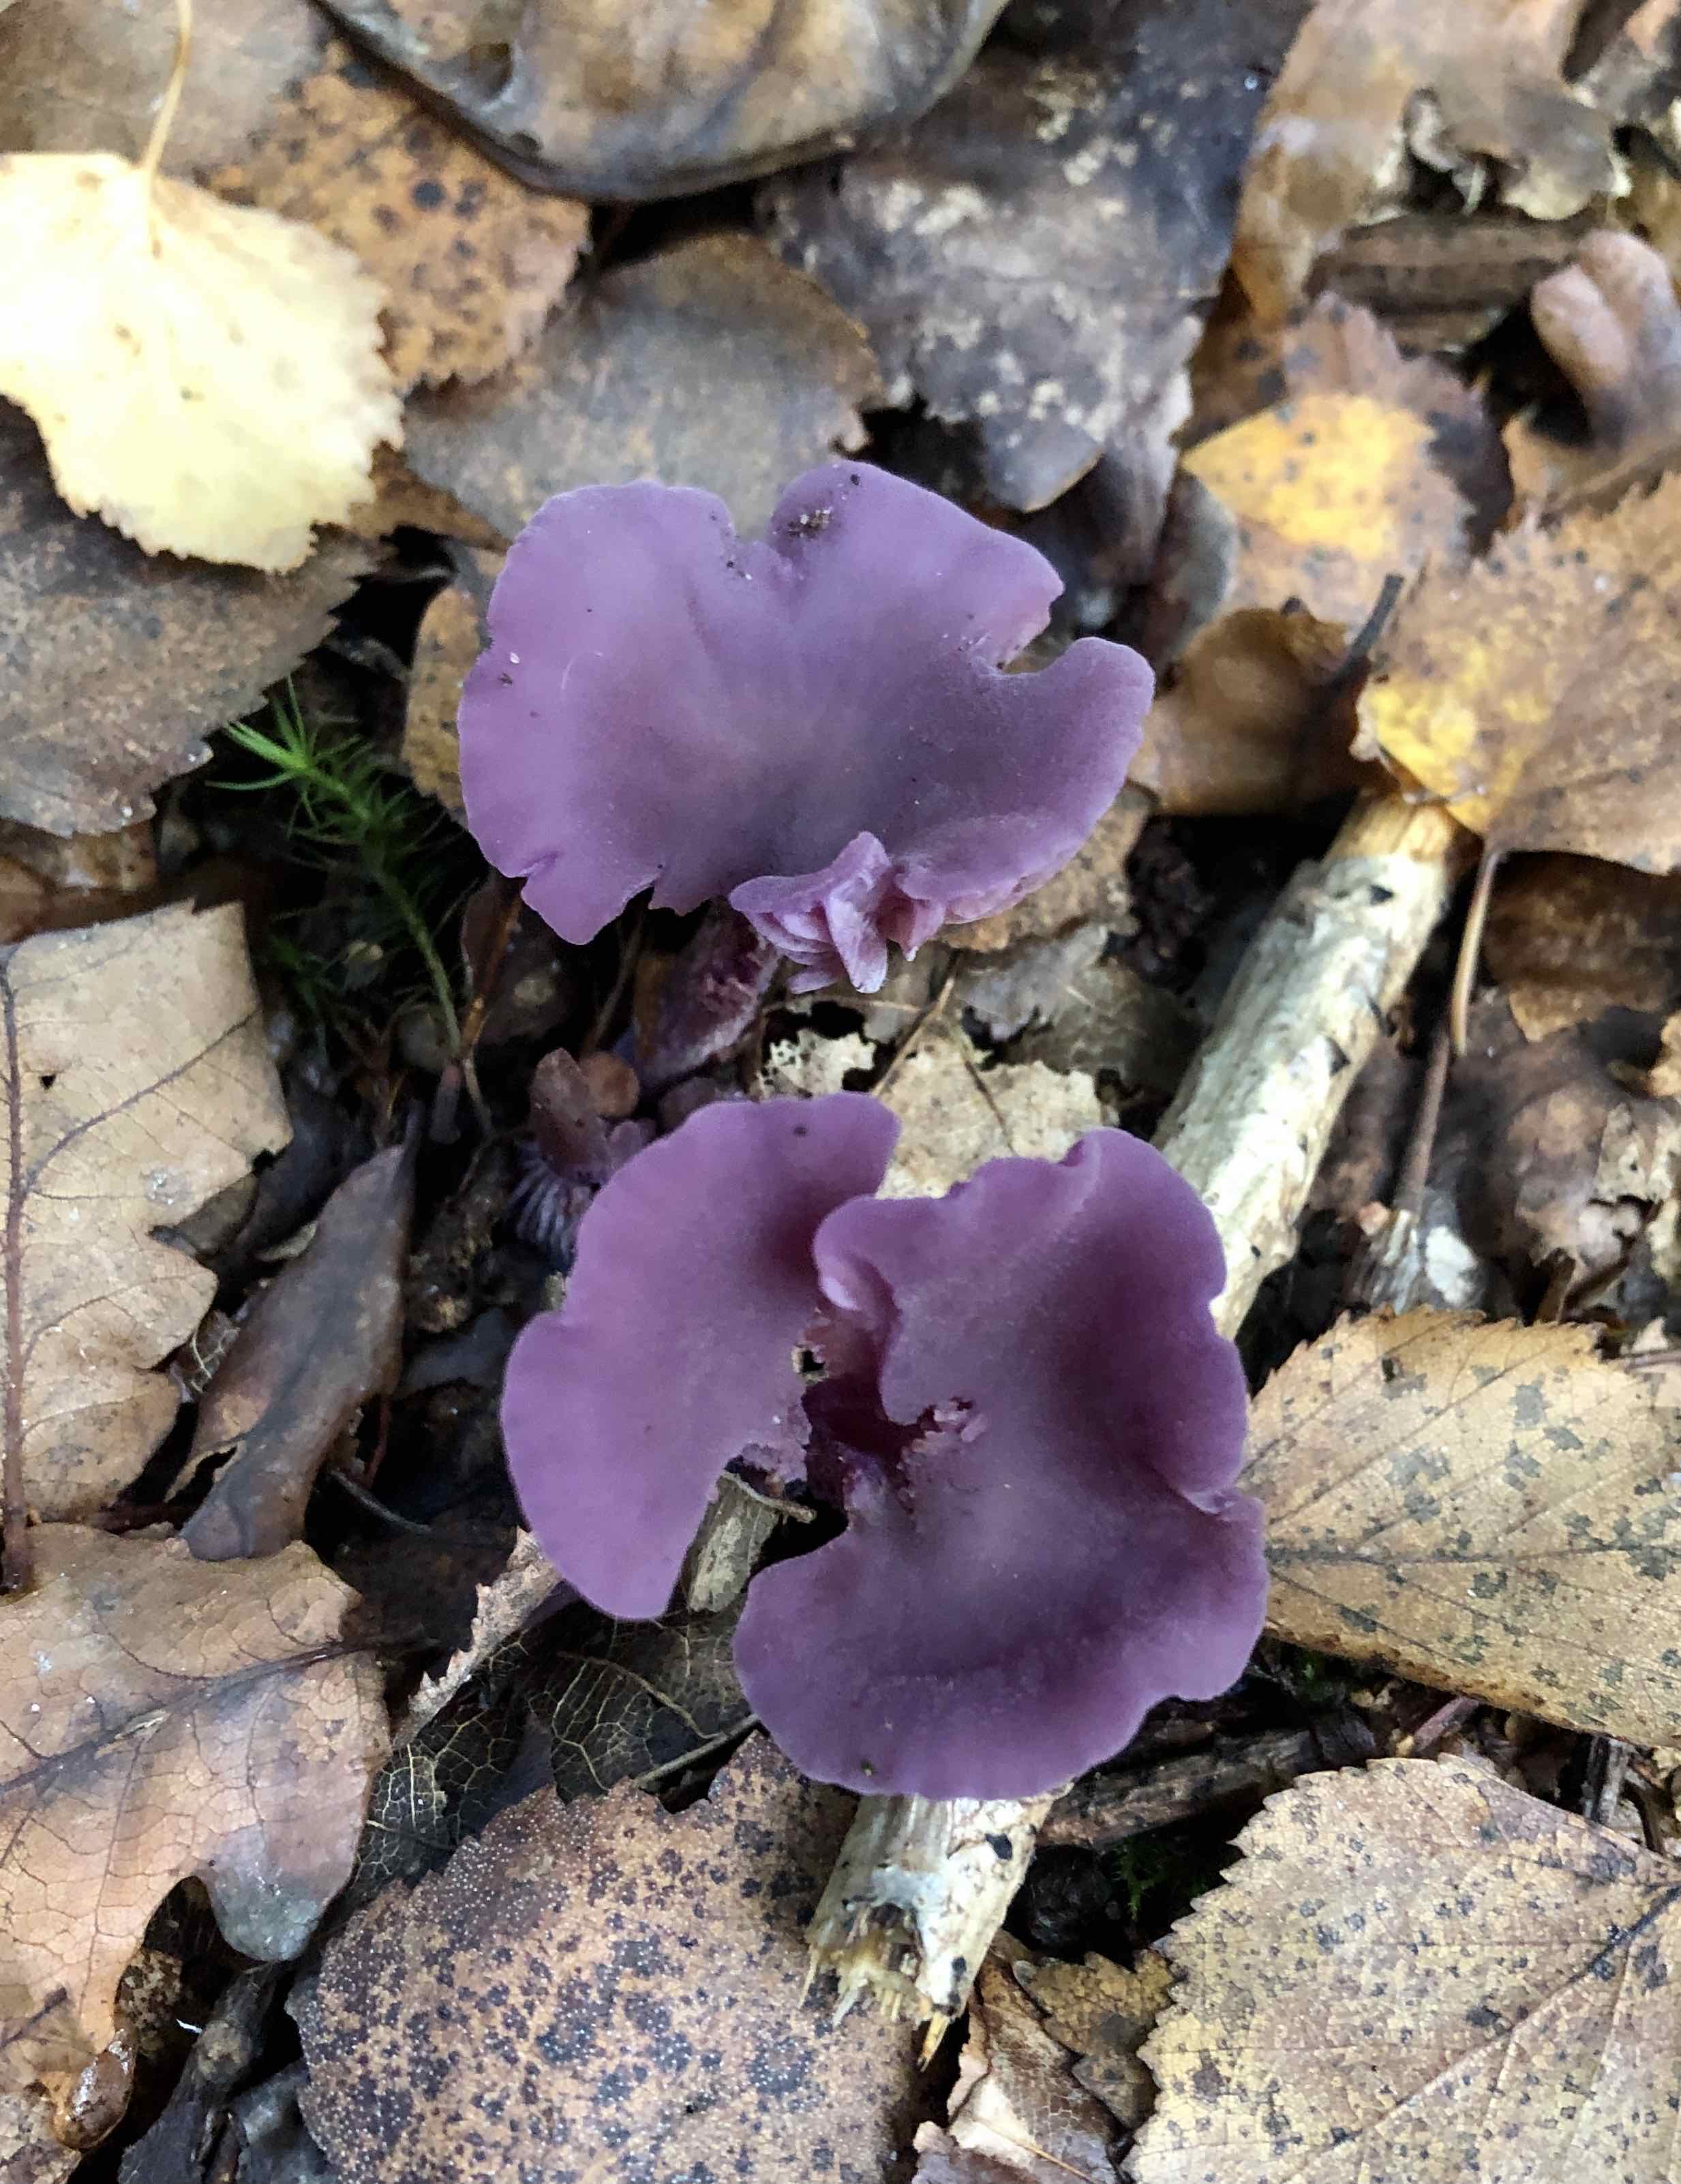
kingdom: Fungi
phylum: Basidiomycota
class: Agaricomycetes
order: Agaricales
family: Hydnangiaceae
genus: Laccaria
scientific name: Laccaria amethystina
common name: violet ametysthat
